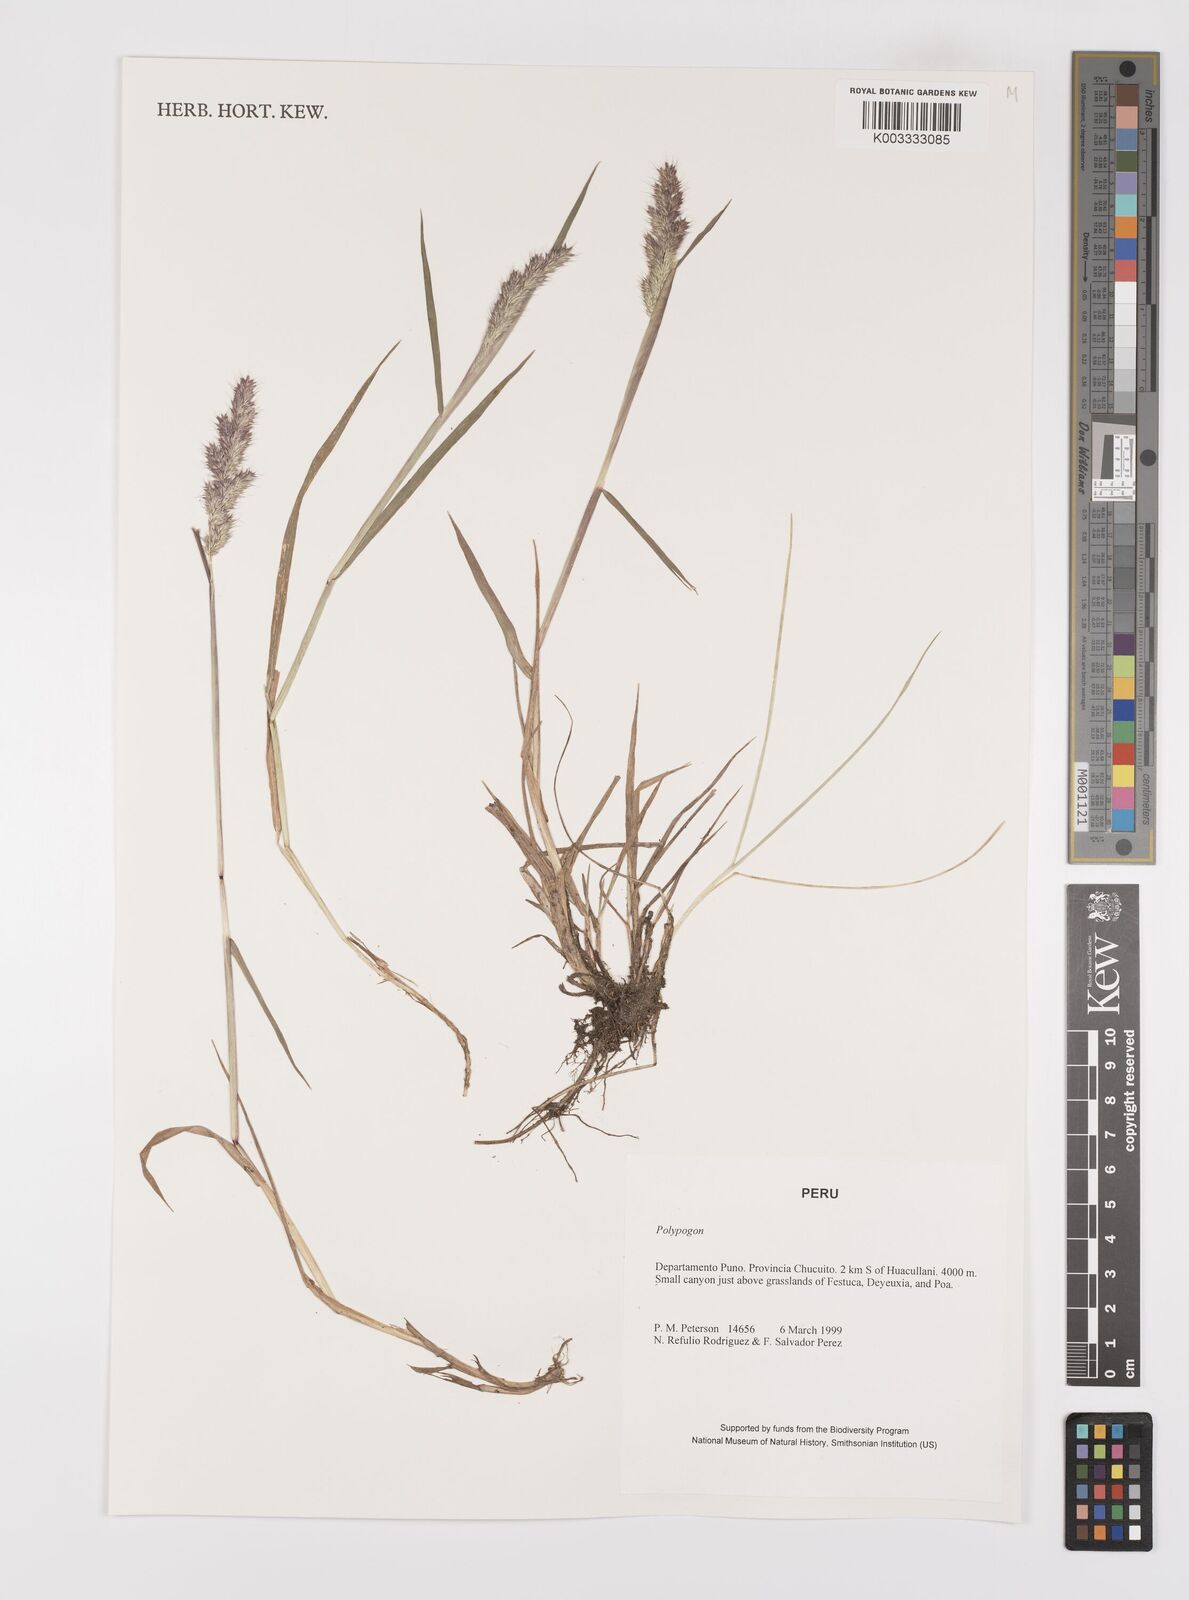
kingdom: Plantae
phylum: Tracheophyta
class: Liliopsida
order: Poales
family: Poaceae
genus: Polypogon
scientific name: Polypogon interruptus
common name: Ditch polypogon
